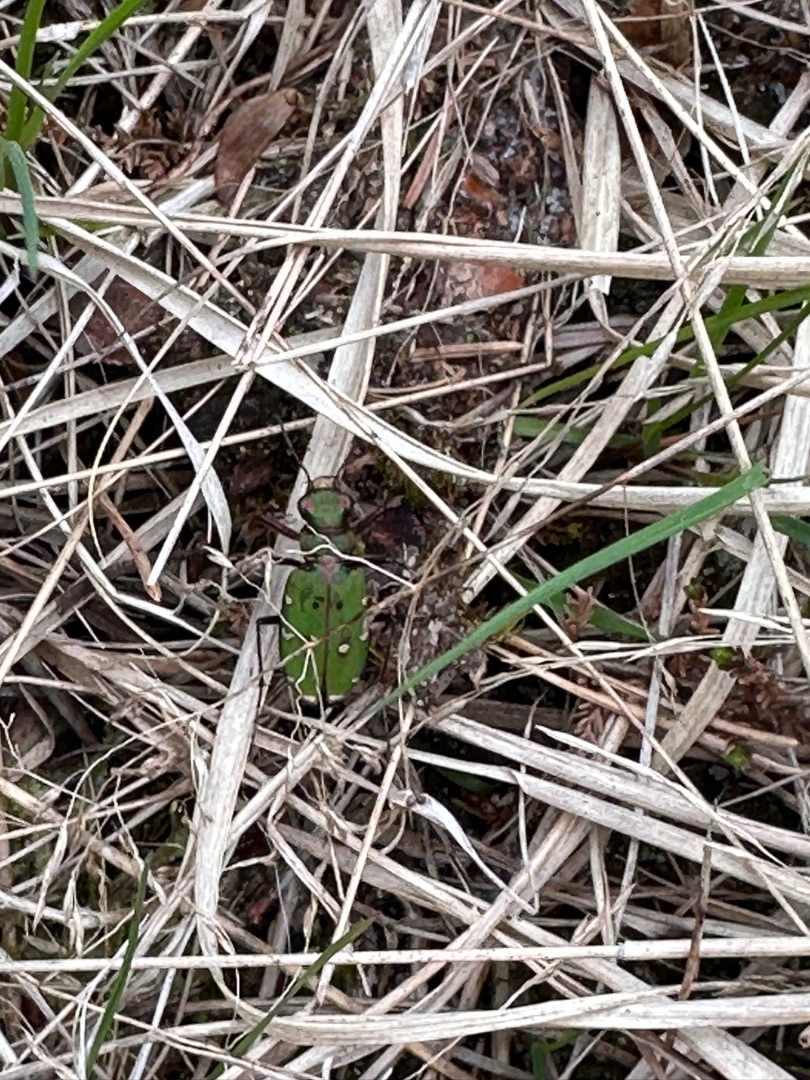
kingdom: Animalia
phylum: Arthropoda
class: Insecta
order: Coleoptera
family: Carabidae
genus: Cicindela
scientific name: Cicindela campestris
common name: Grøn sandspringer
